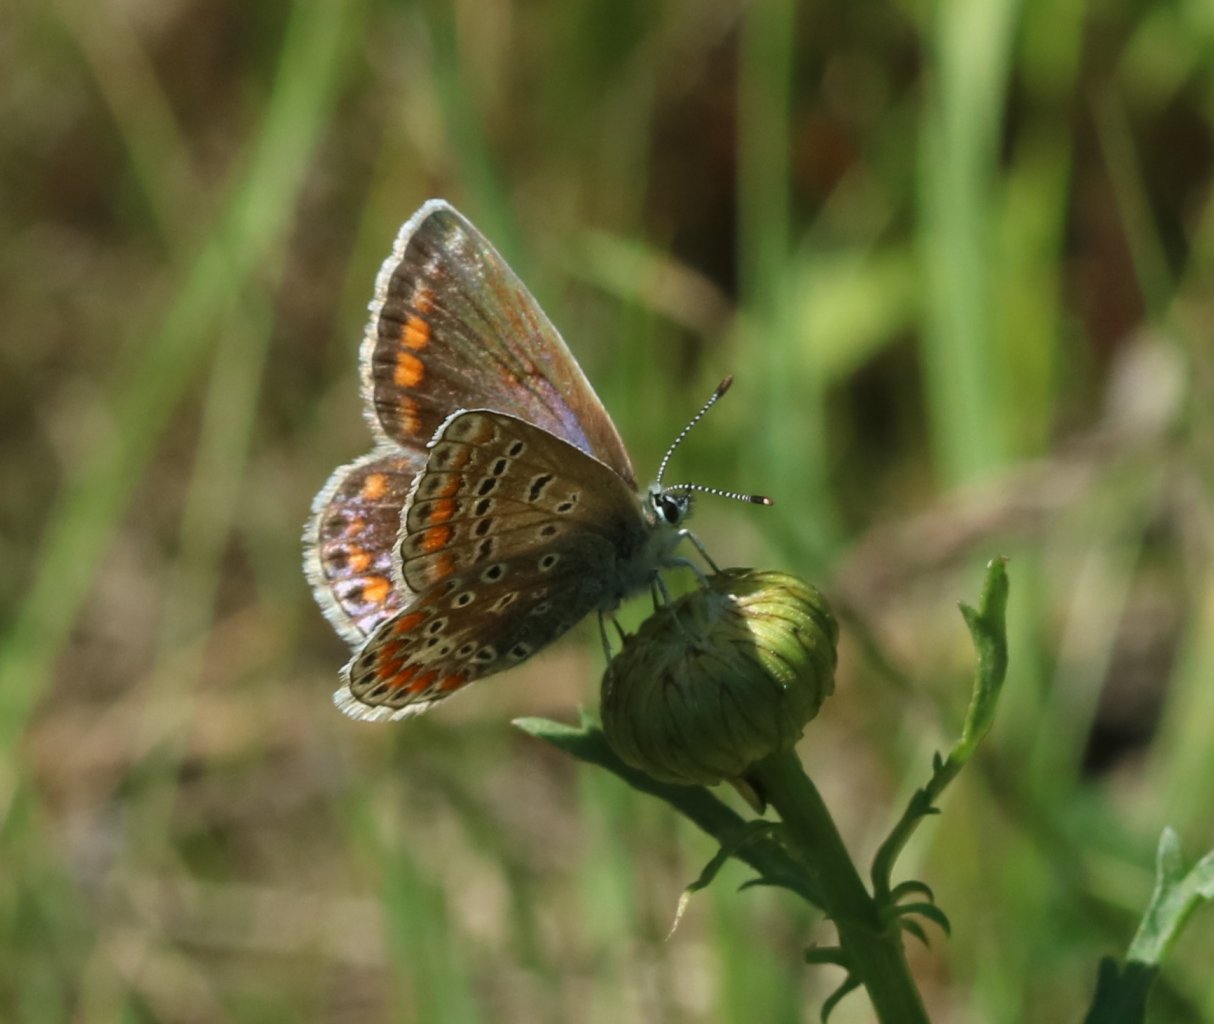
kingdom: Animalia
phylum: Arthropoda
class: Insecta
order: Lepidoptera
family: Lycaenidae
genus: Polyommatus
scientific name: Polyommatus icarus
